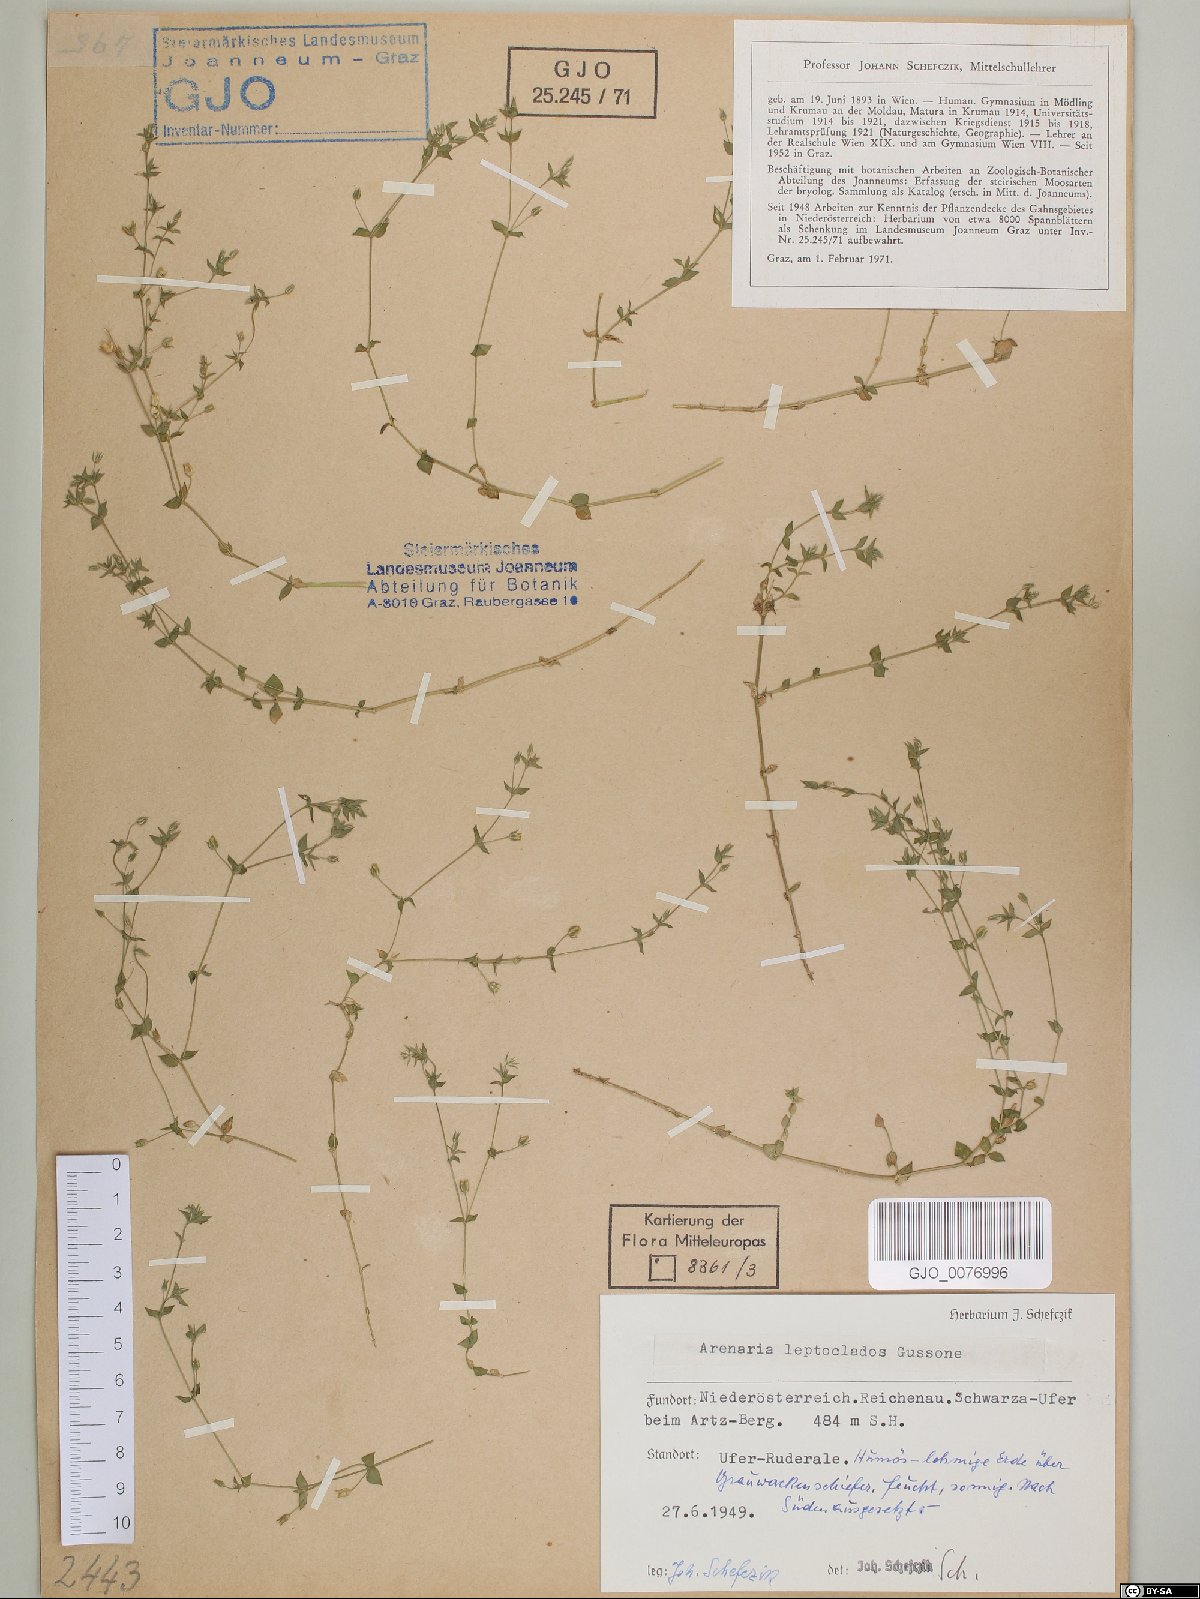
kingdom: Plantae
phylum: Tracheophyta
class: Magnoliopsida
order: Caryophyllales
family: Caryophyllaceae
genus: Arenaria
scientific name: Arenaria leptoclados
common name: Thyme-leaved sandwort
